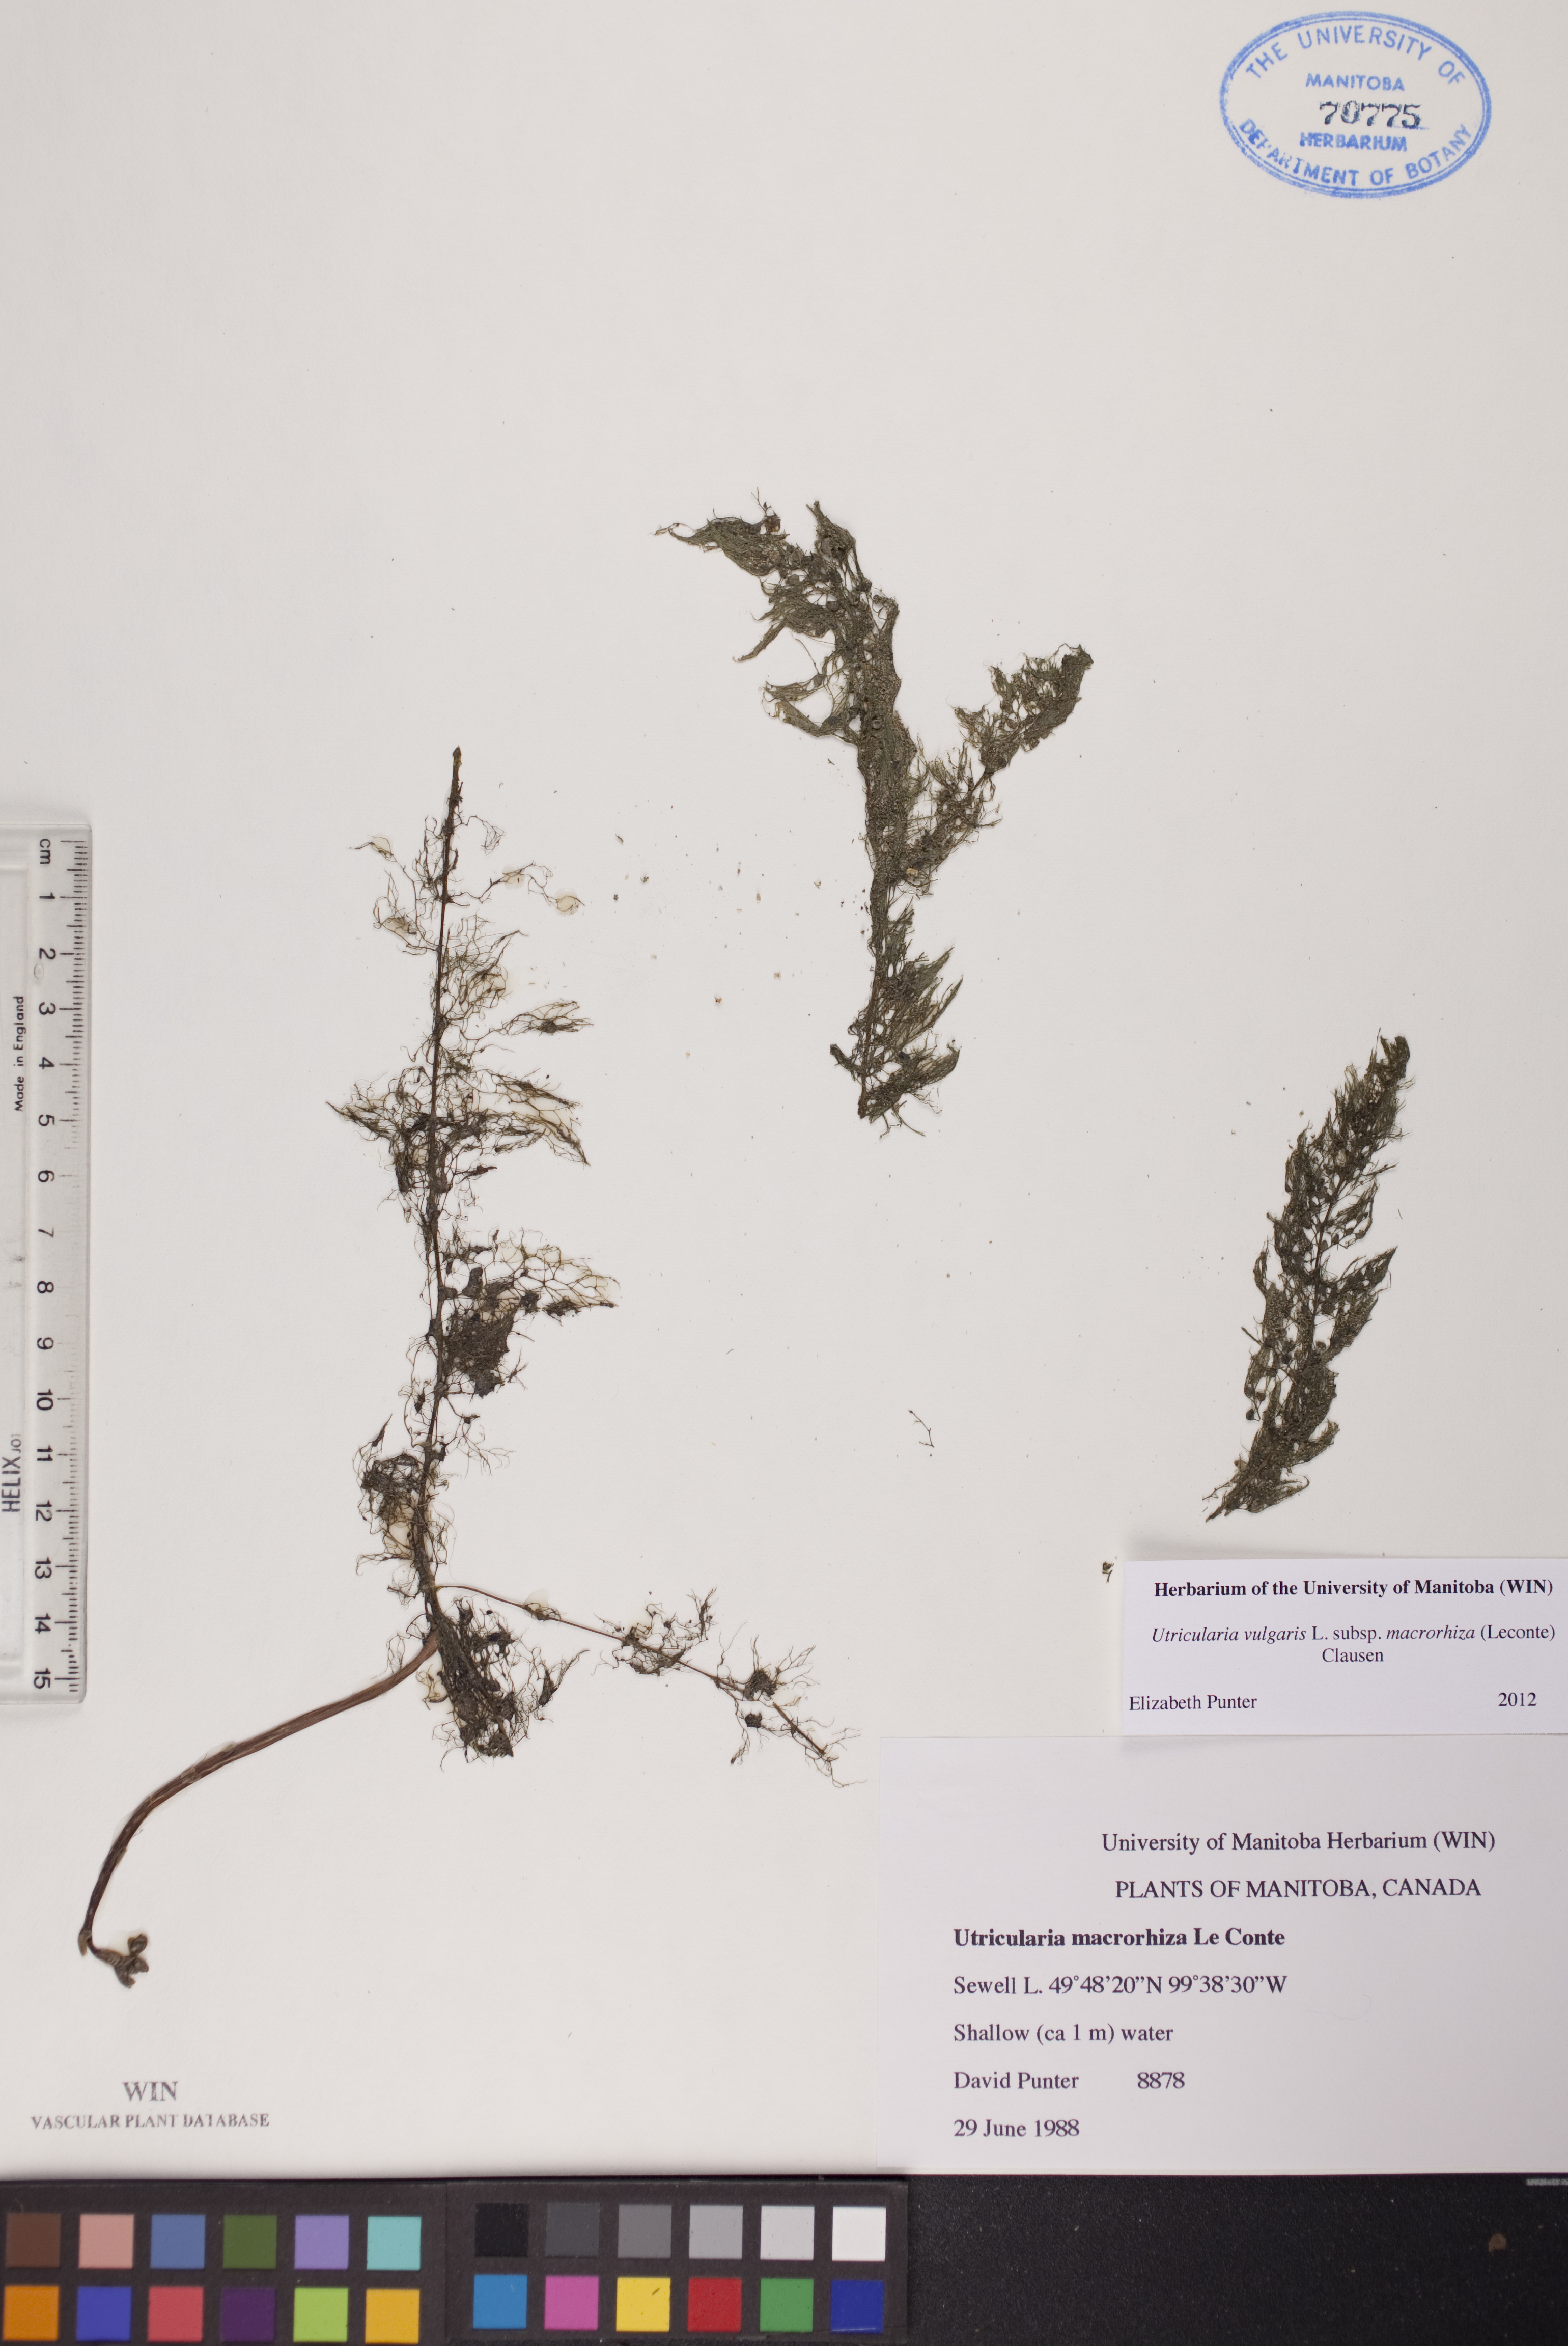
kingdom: Plantae
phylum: Tracheophyta
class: Magnoliopsida
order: Lamiales
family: Lentibulariaceae
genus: Utricularia
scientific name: Utricularia macrorhiza
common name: Common bladderwort
